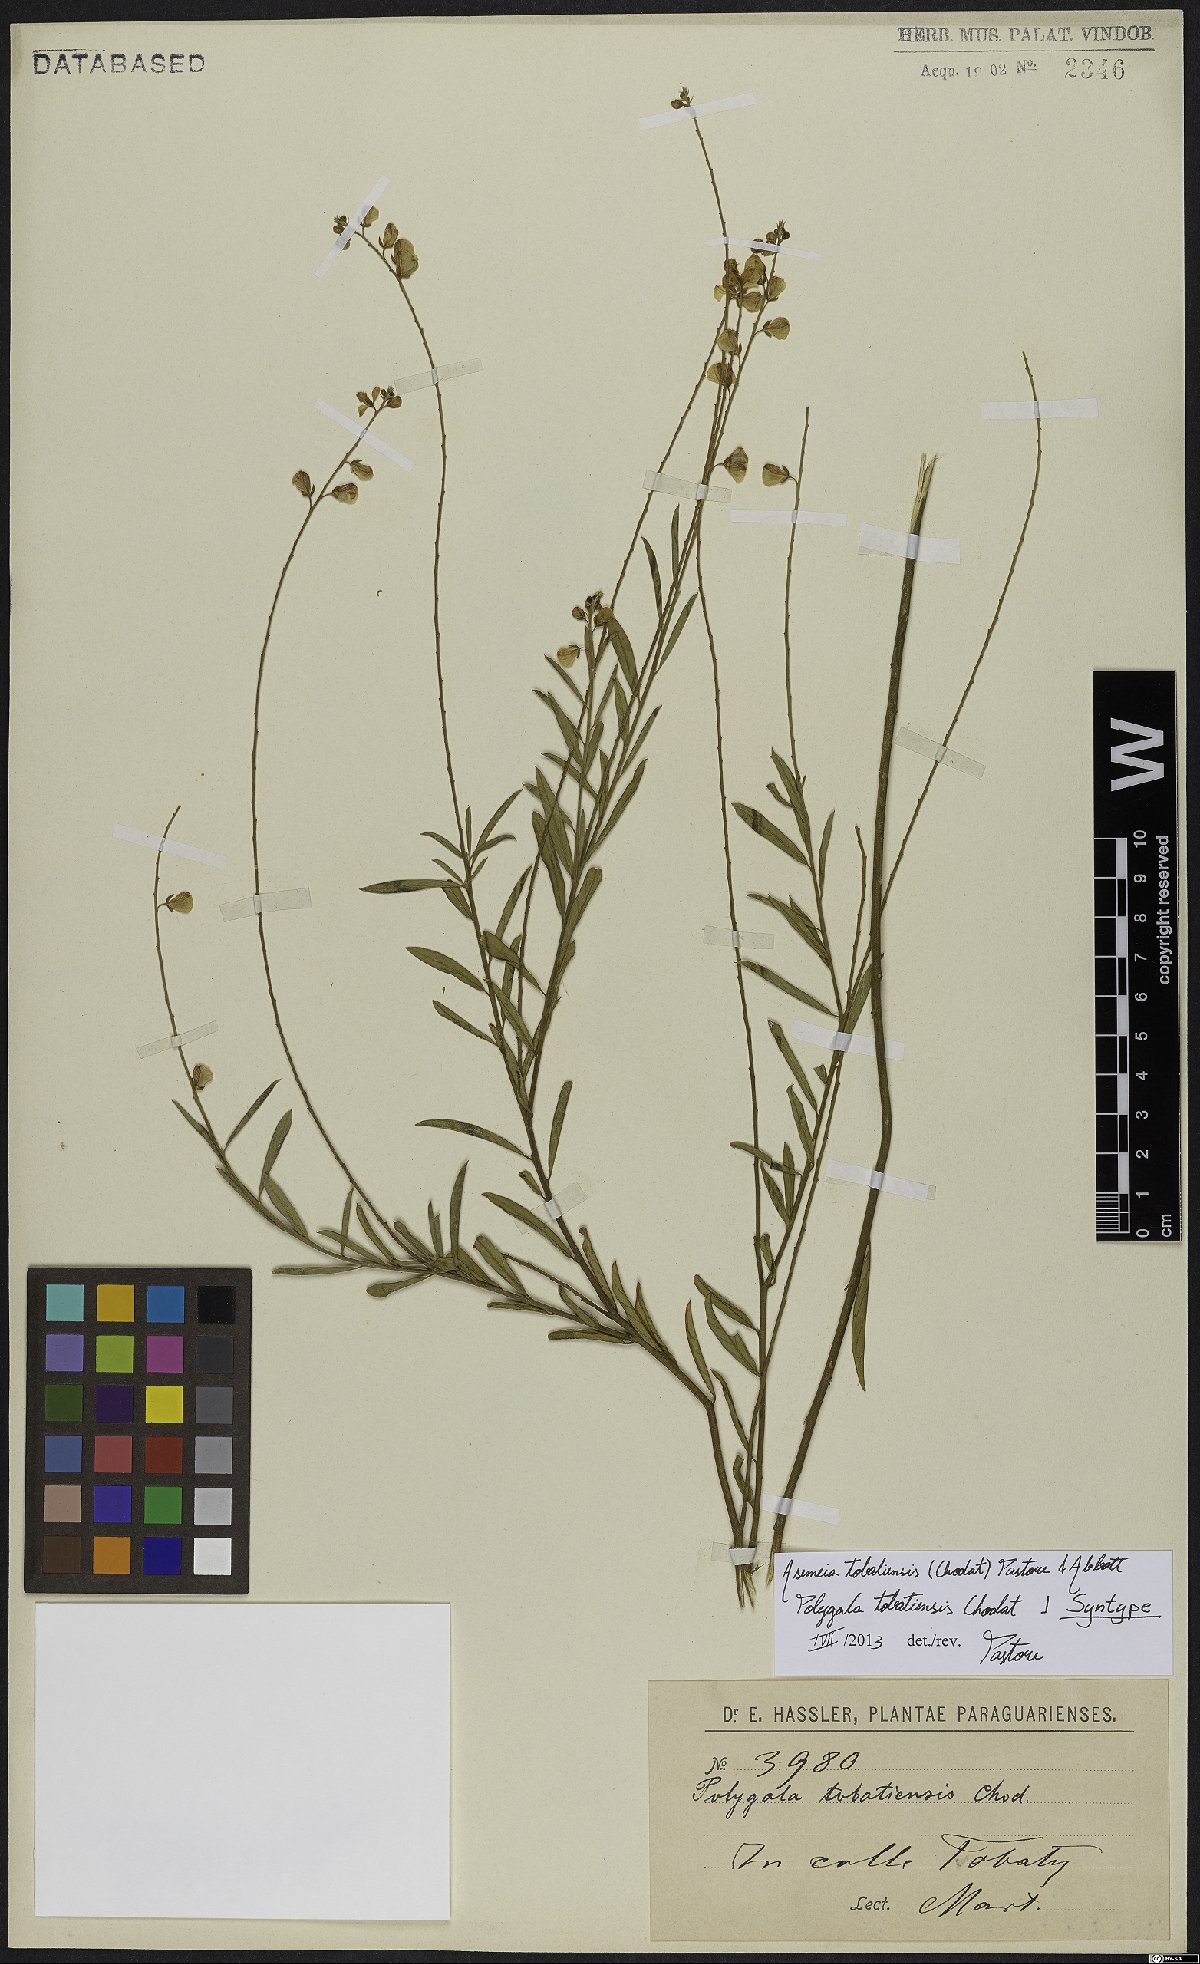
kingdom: Plantae
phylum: Tracheophyta
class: Magnoliopsida
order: Fabales
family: Polygalaceae
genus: Asemeia
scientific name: Asemeia tobatiensis
